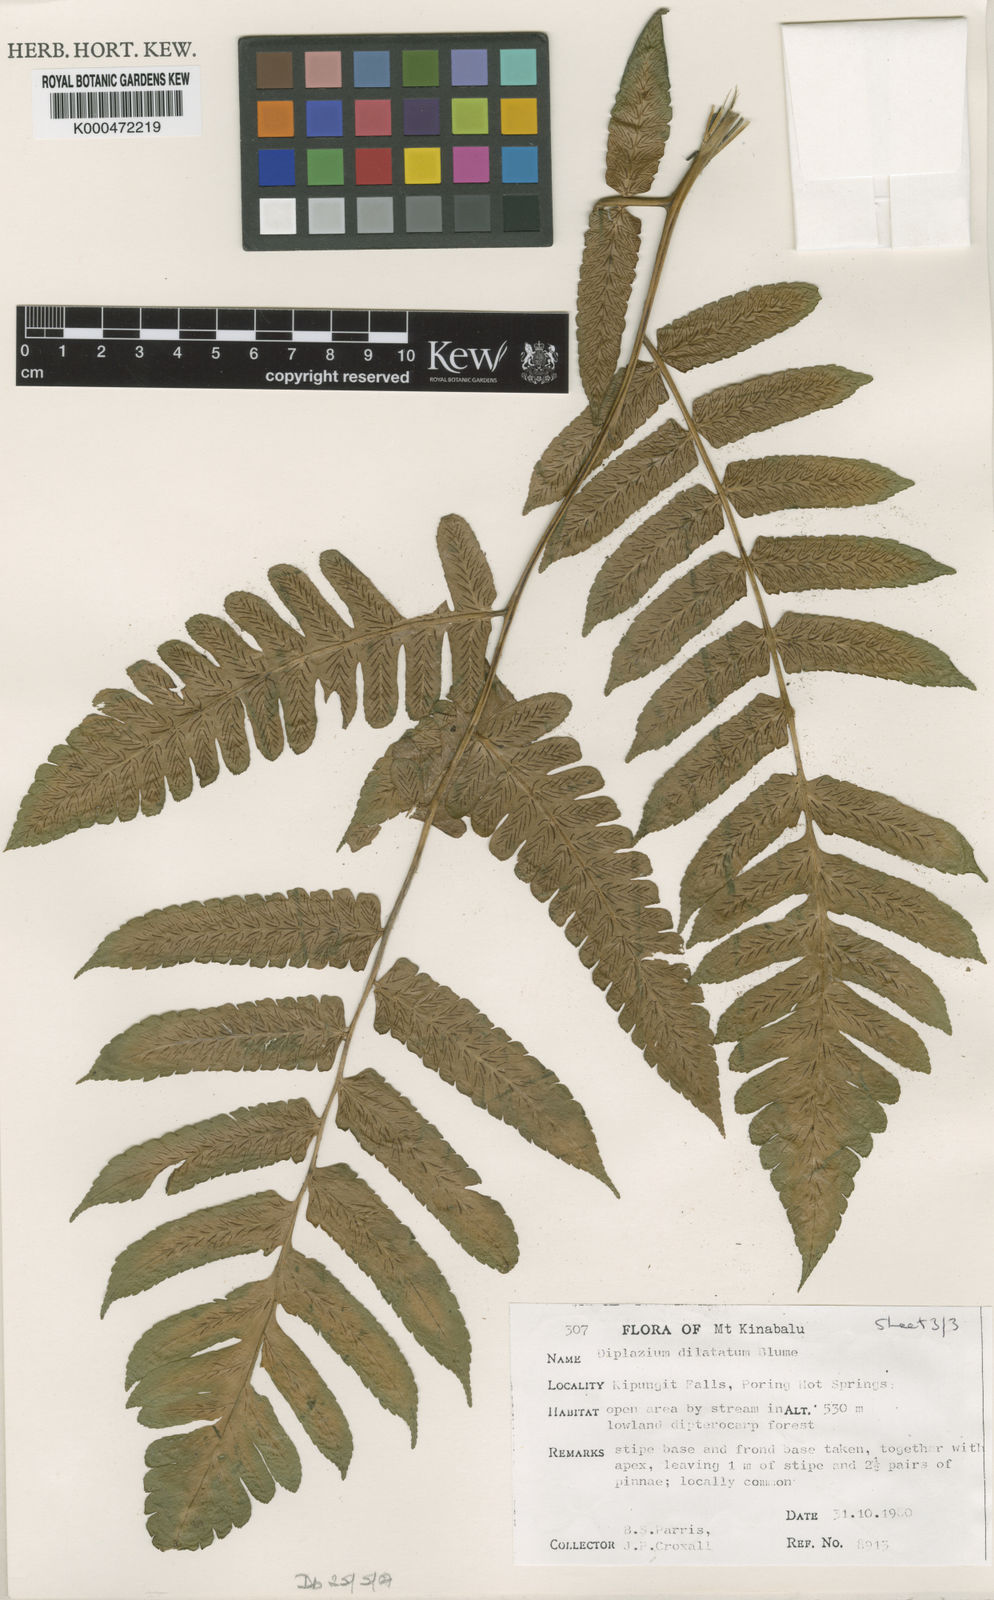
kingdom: Plantae
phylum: Tracheophyta
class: Polypodiopsida
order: Polypodiales
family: Athyriaceae
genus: Diplazium
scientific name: Diplazium dilatatum
